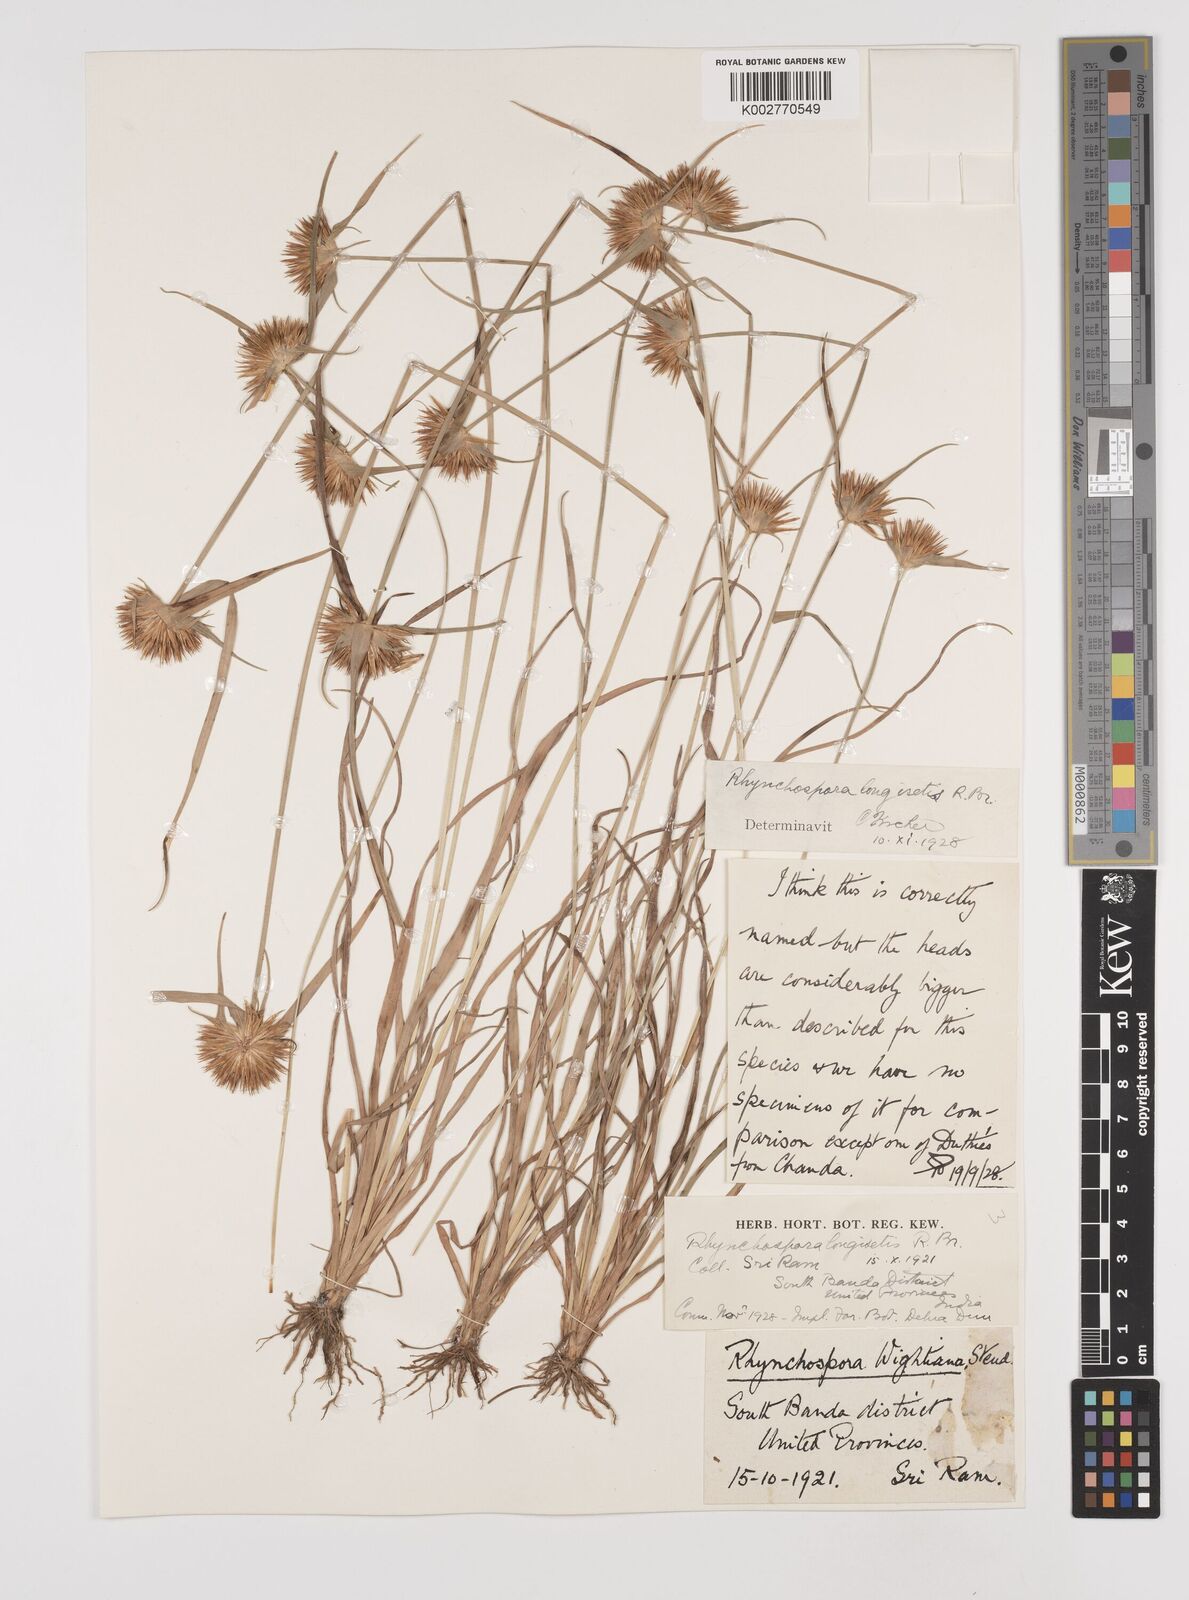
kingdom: Plantae
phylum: Tracheophyta
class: Liliopsida
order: Poales
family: Cyperaceae
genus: Rhynchospora
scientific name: Rhynchospora longisetis
